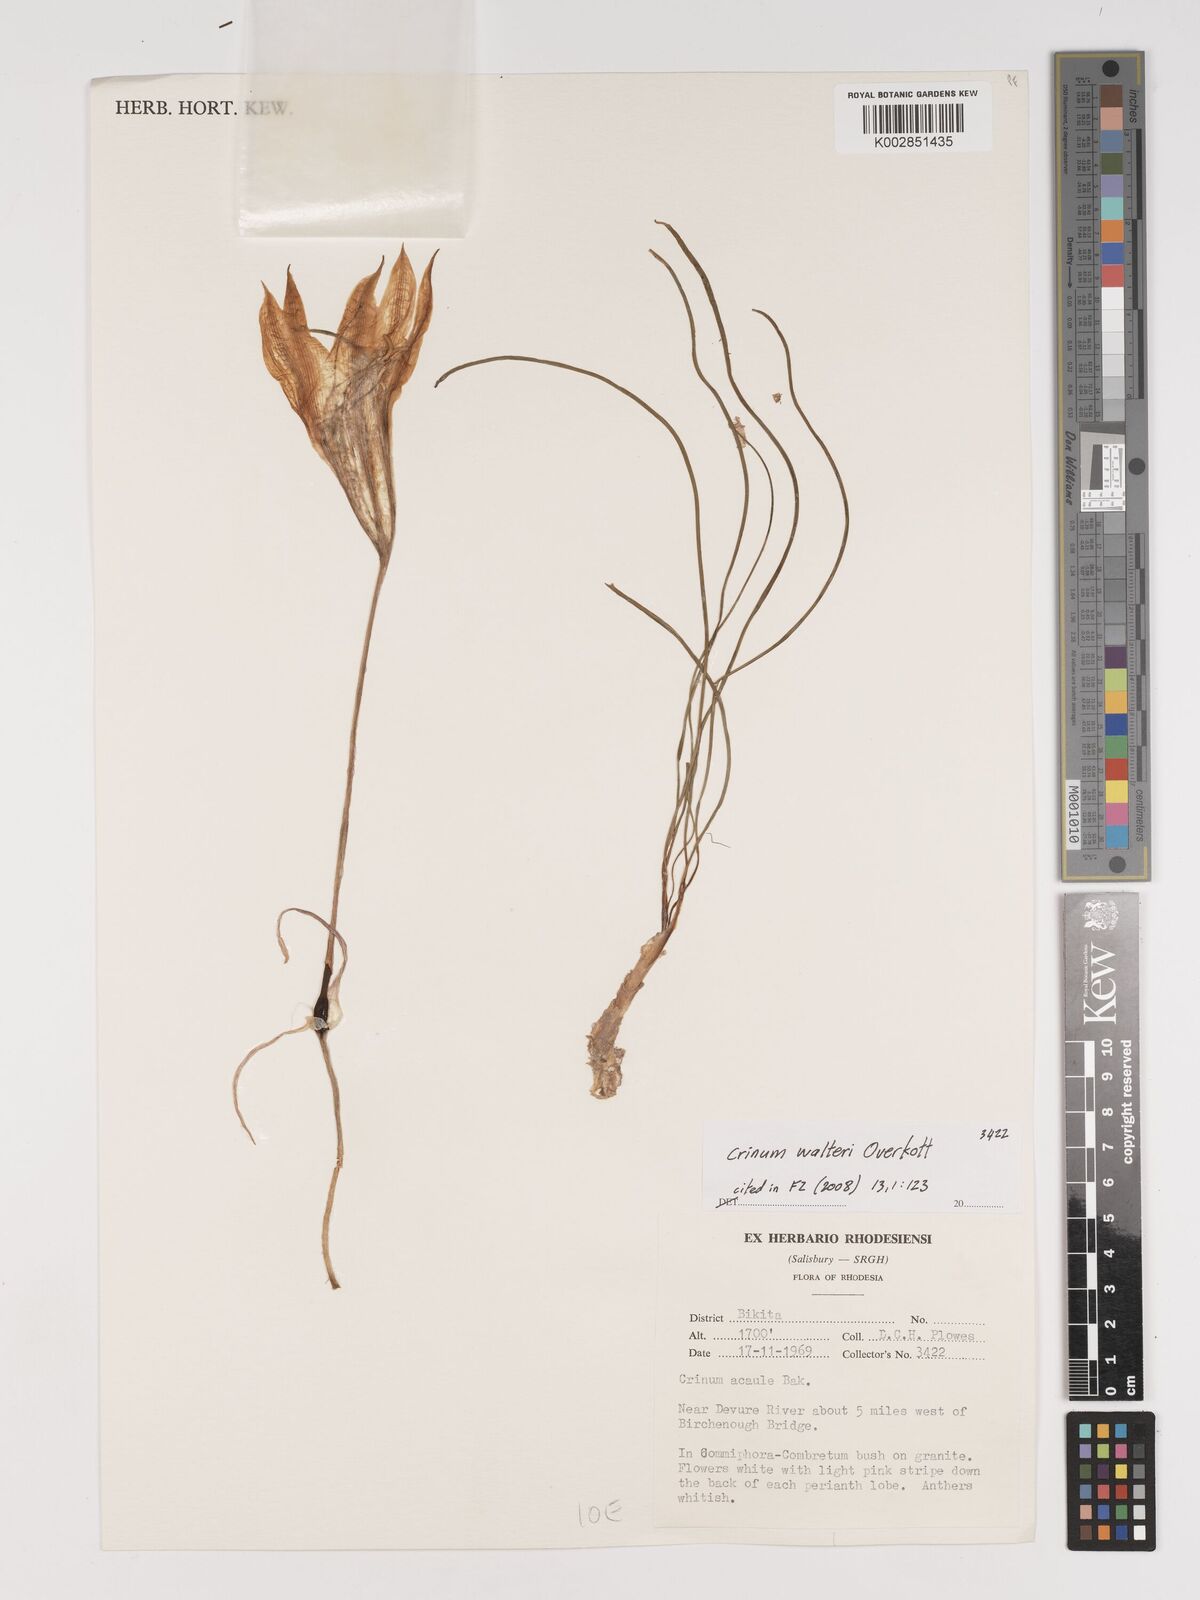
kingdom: Plantae
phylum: Tracheophyta
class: Liliopsida
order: Asparagales
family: Amaryllidaceae
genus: Crinum
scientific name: Crinum walteri
